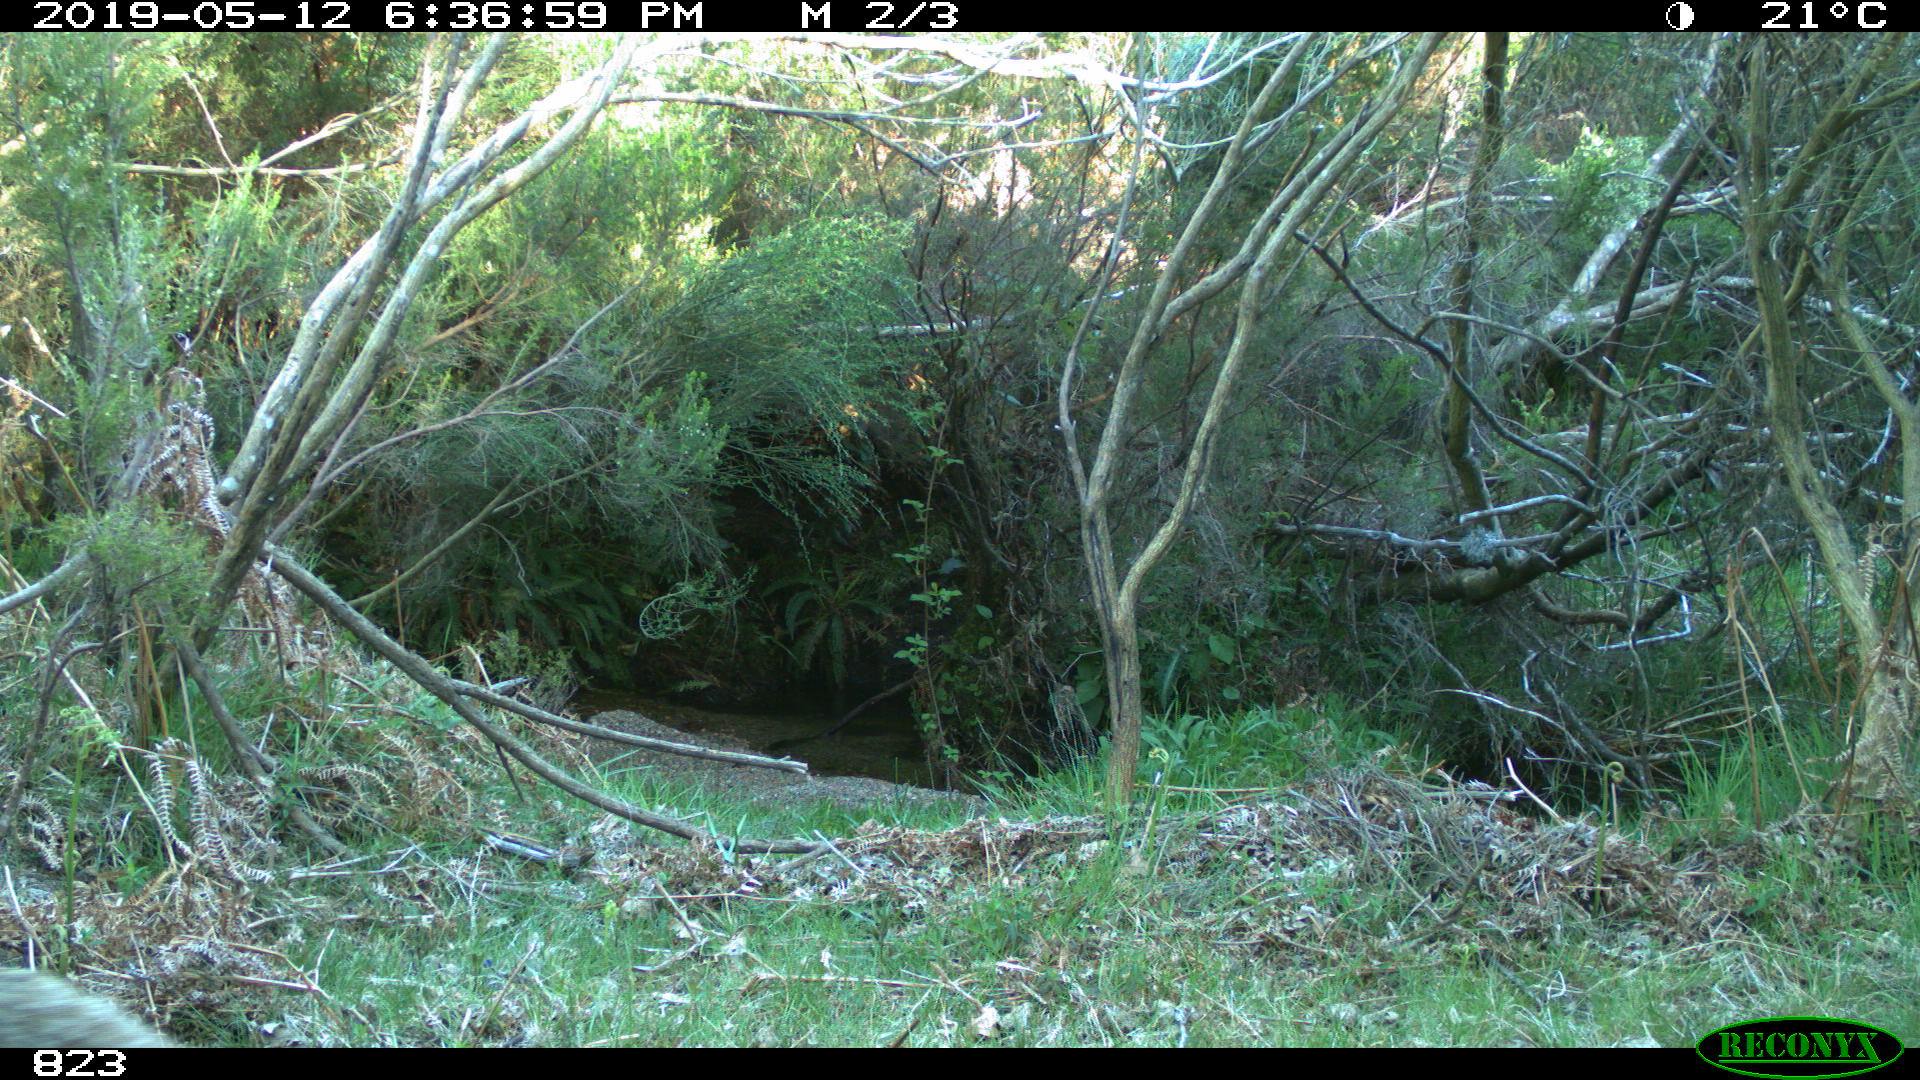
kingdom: Animalia
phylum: Chordata
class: Mammalia
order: Carnivora
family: Canidae
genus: Vulpes
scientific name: Vulpes vulpes
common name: Red fox
